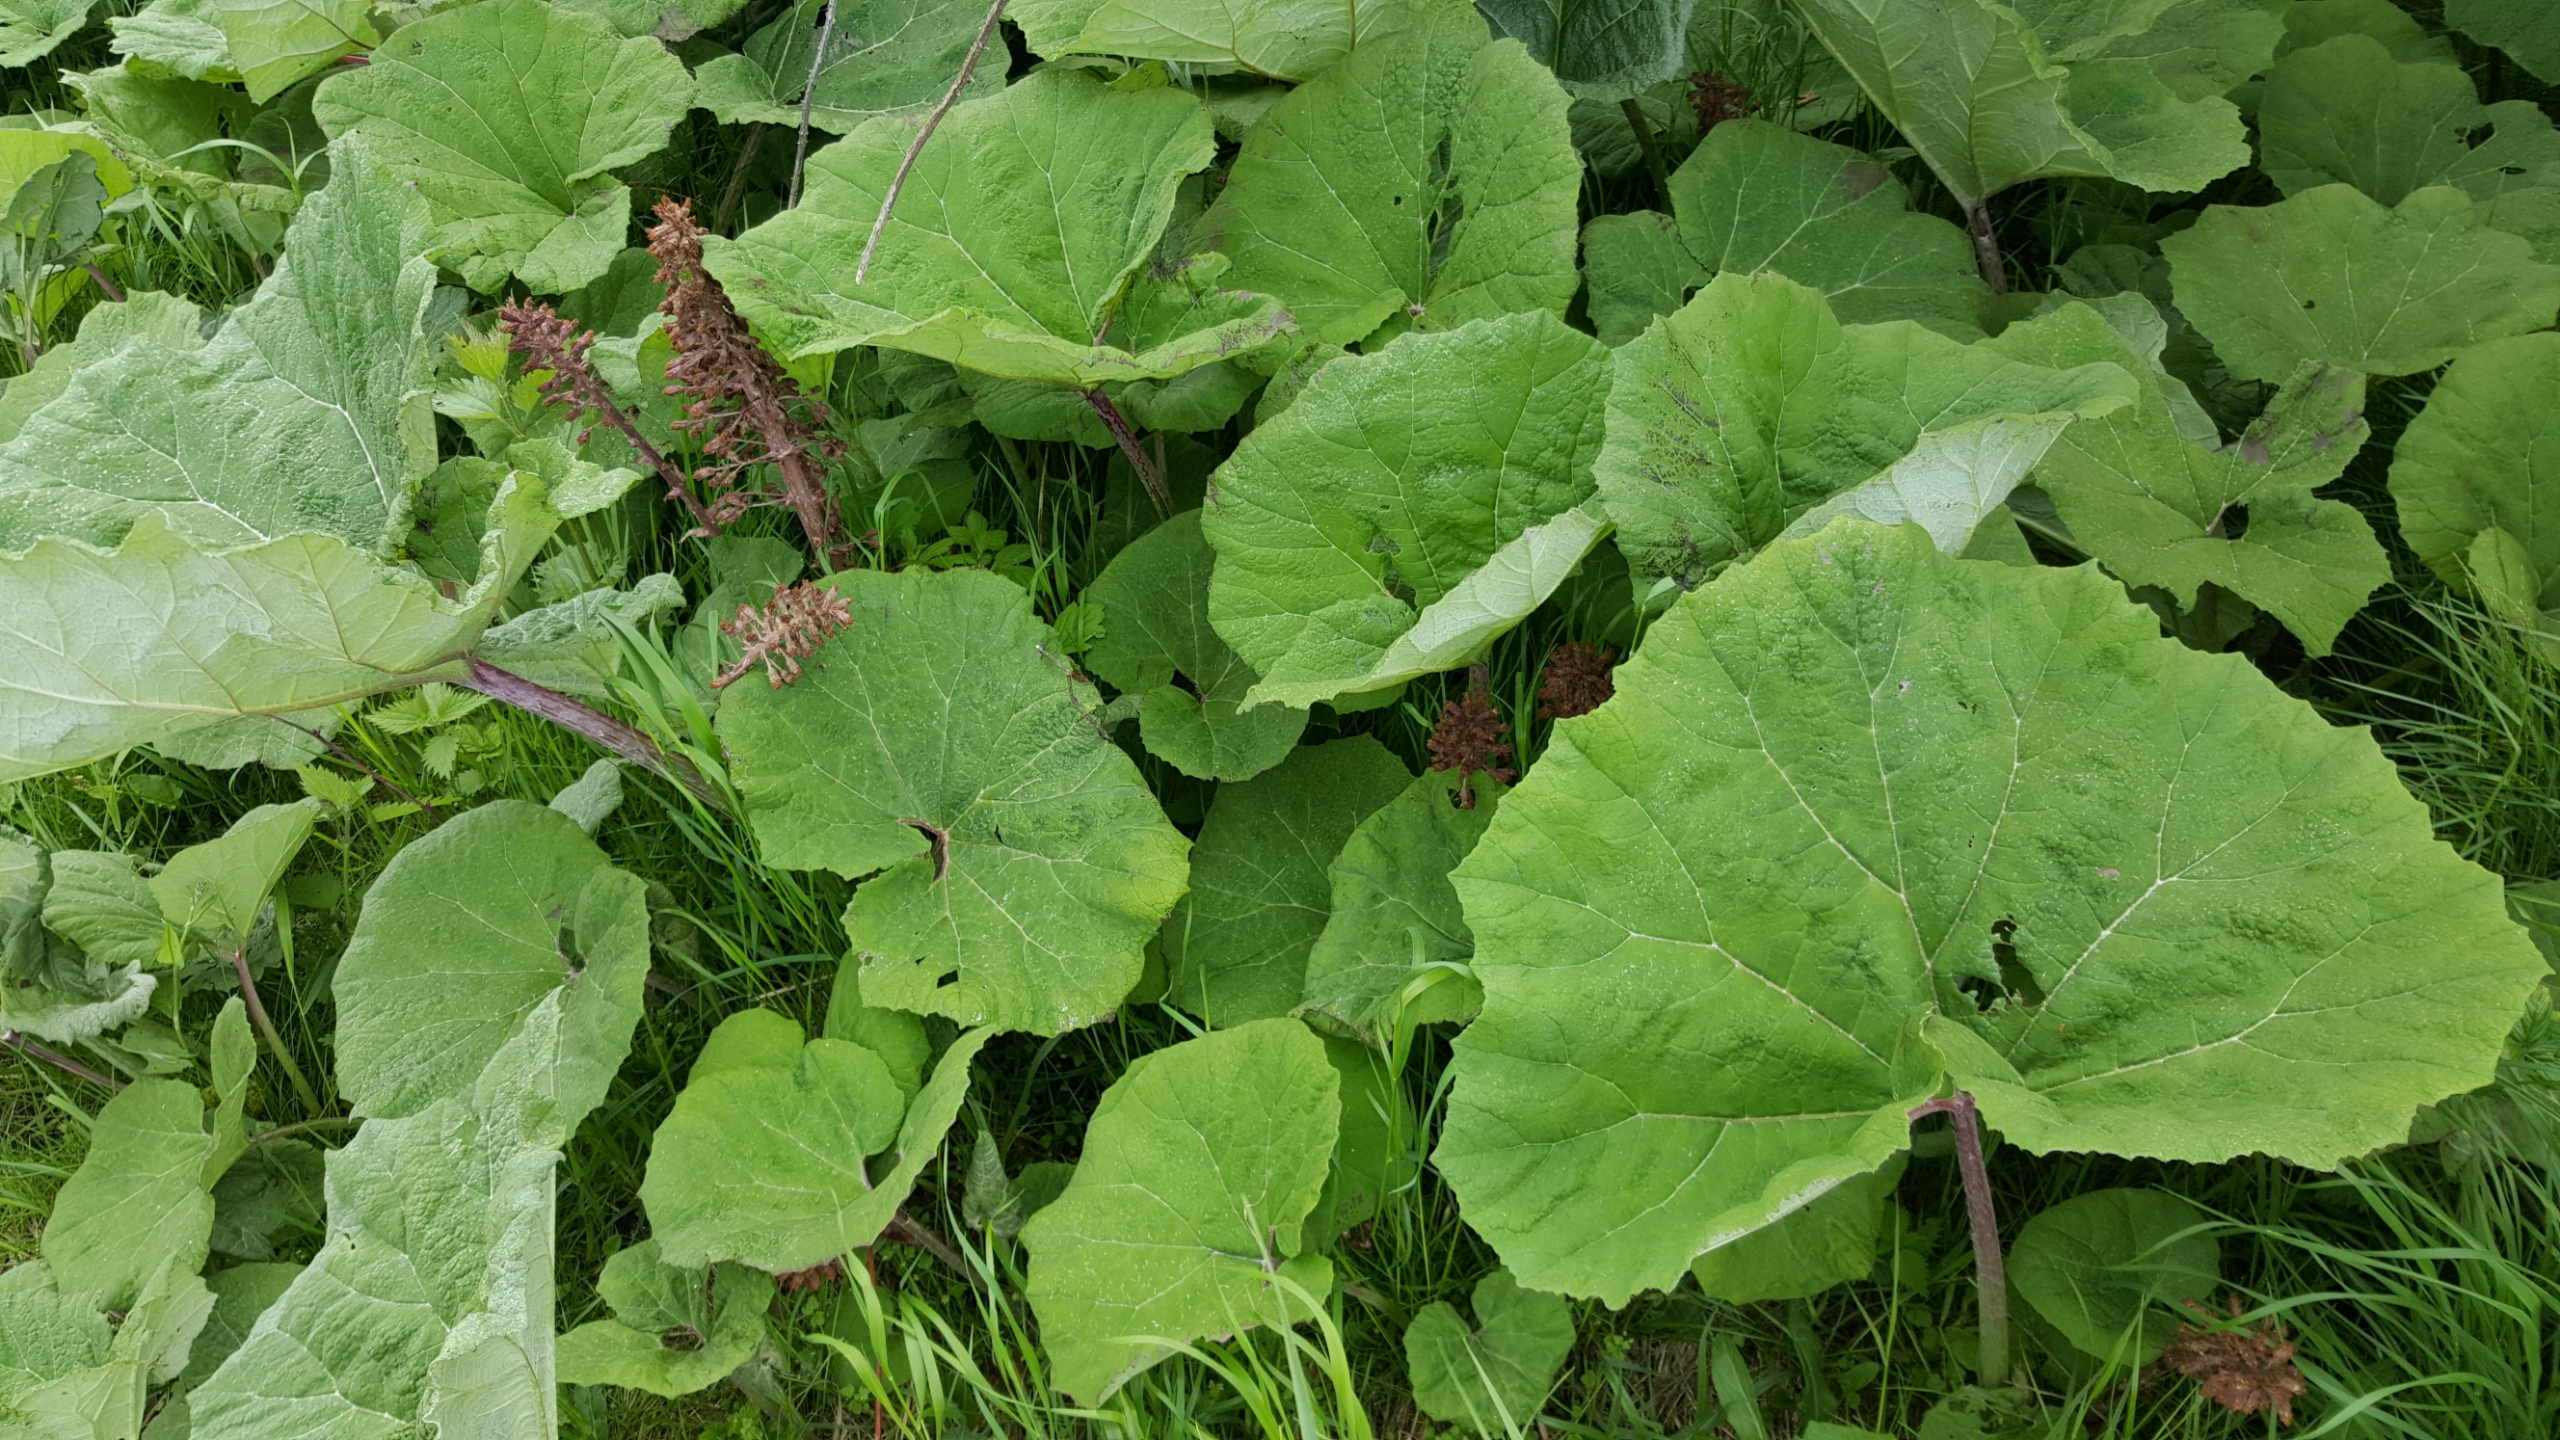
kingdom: Plantae
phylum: Tracheophyta
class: Magnoliopsida
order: Asterales
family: Asteraceae
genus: Petasites
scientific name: Petasites hybridus
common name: Rød hestehov
